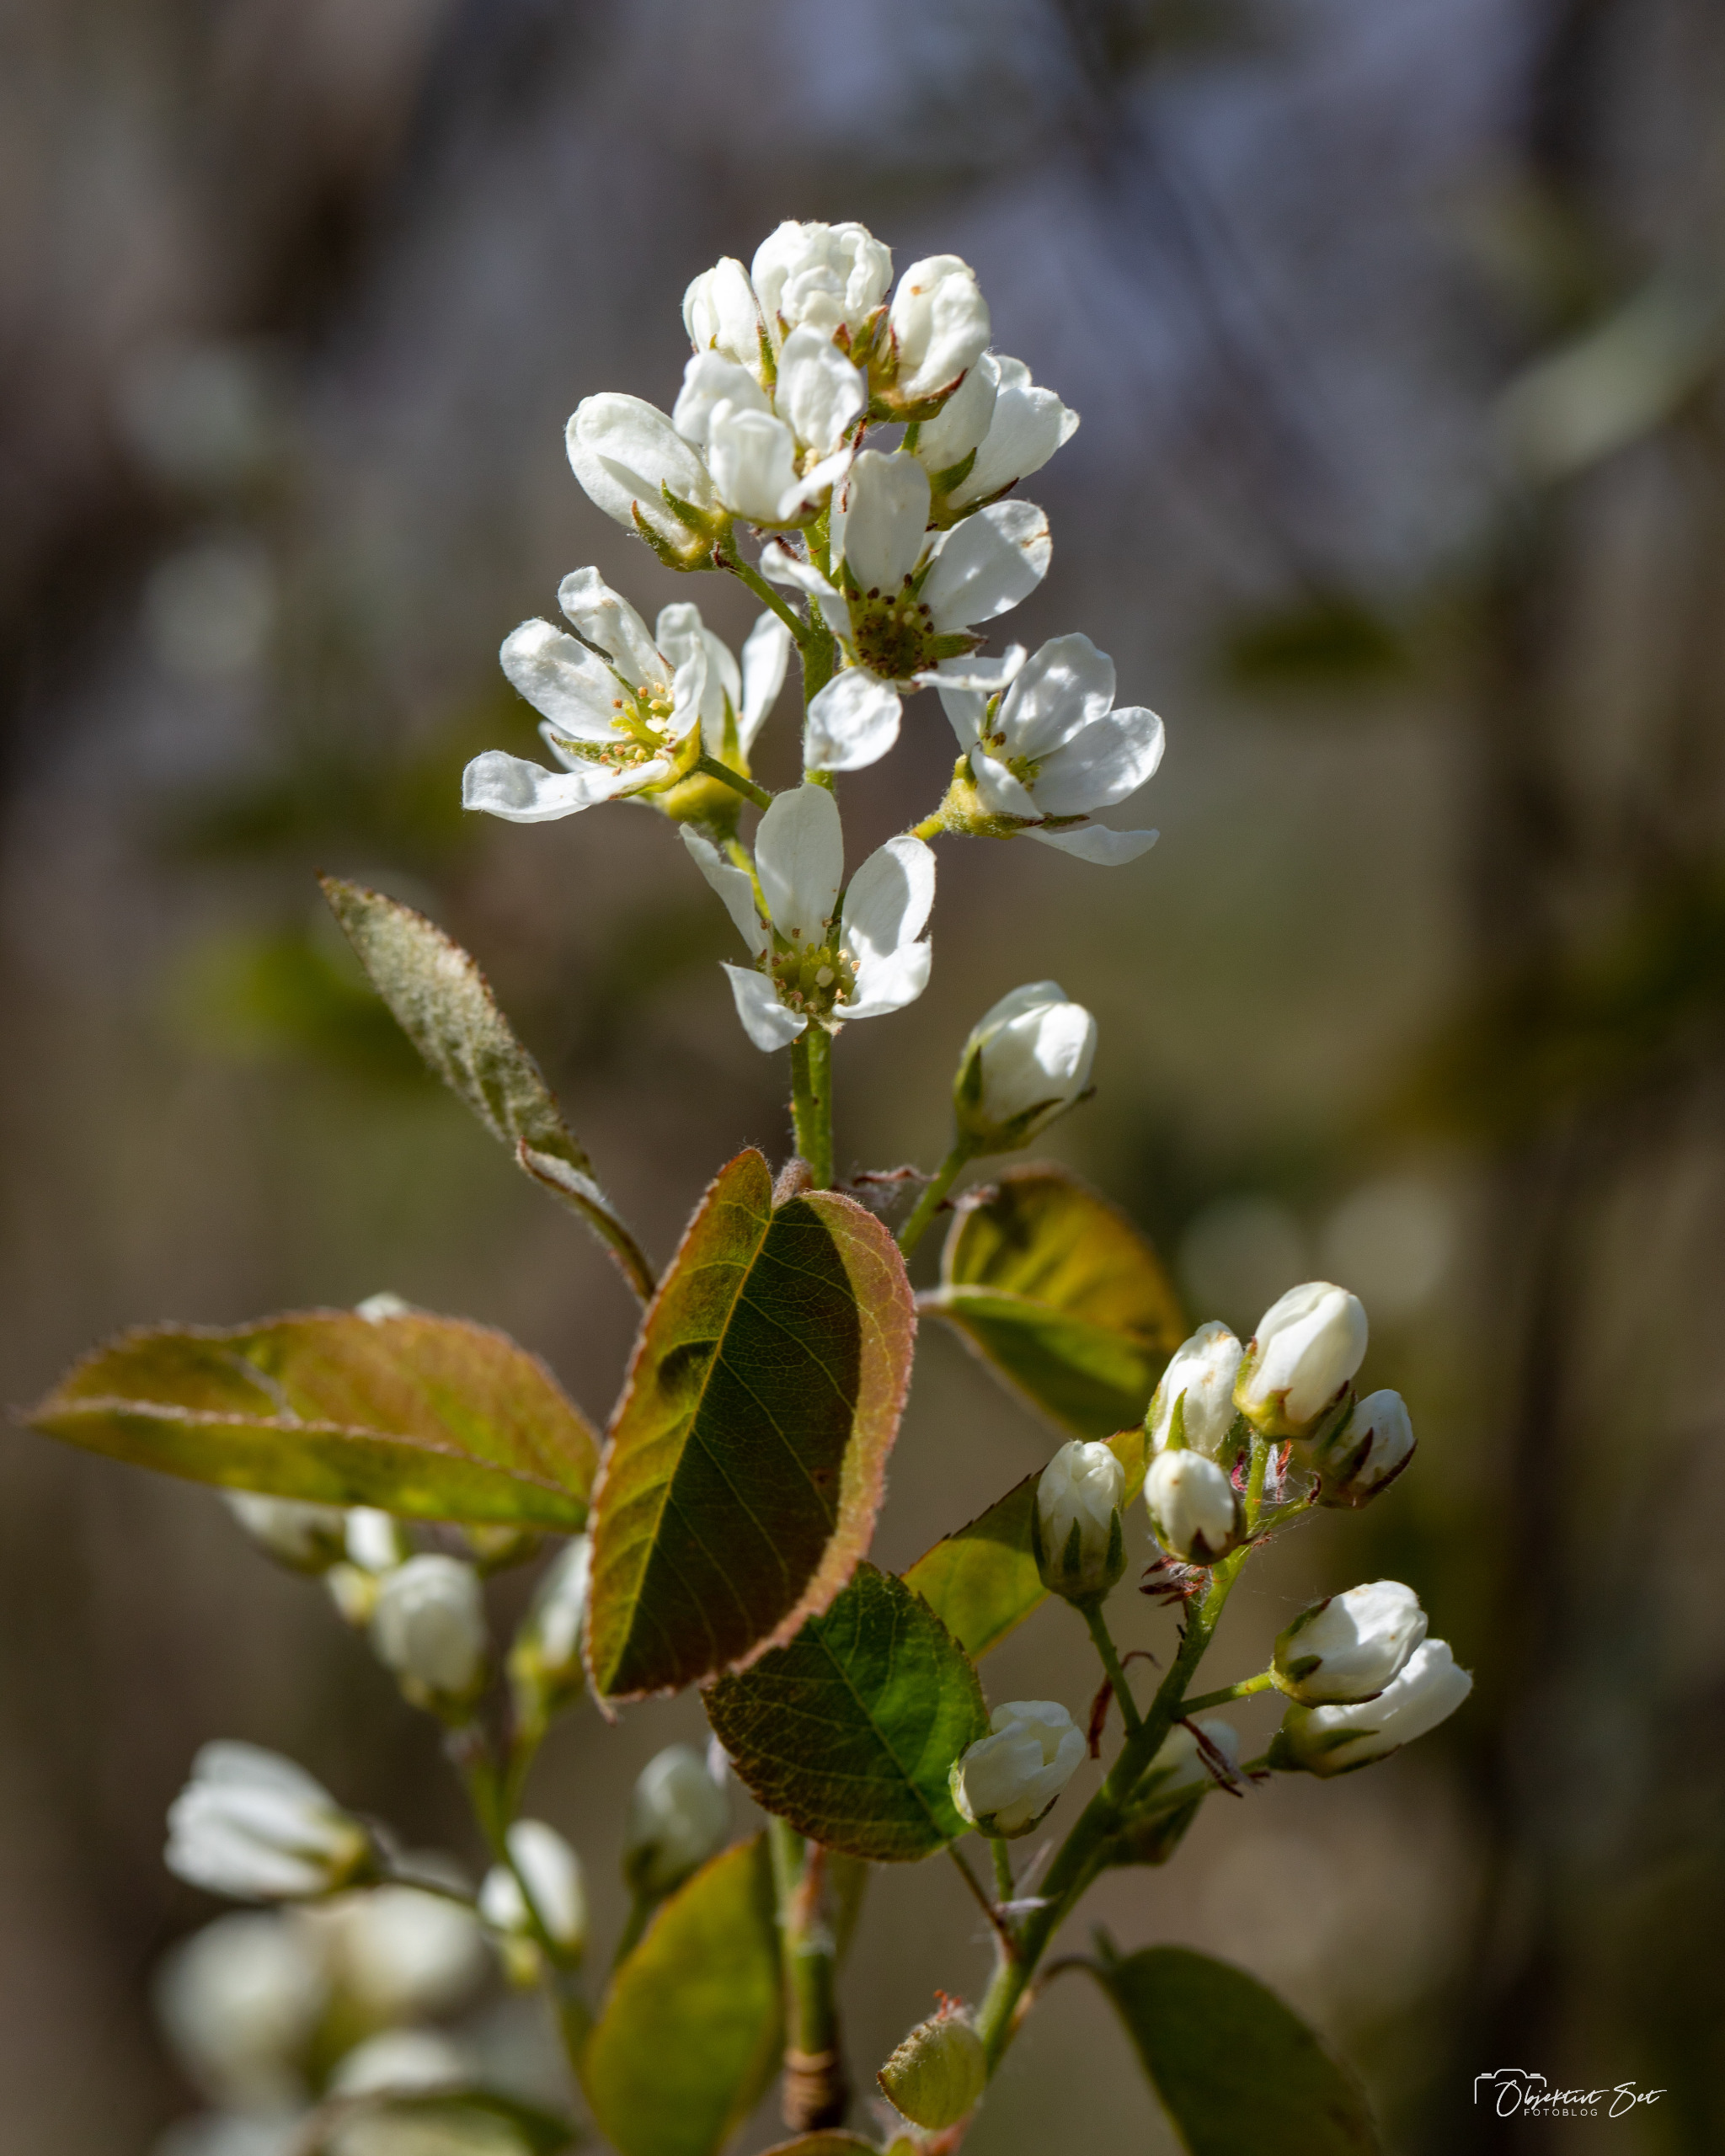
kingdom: Plantae
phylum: Tracheophyta
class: Magnoliopsida
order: Rosales
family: Rosaceae
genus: Amelanchier
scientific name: Amelanchier humilis
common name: Aks-bærmispel
